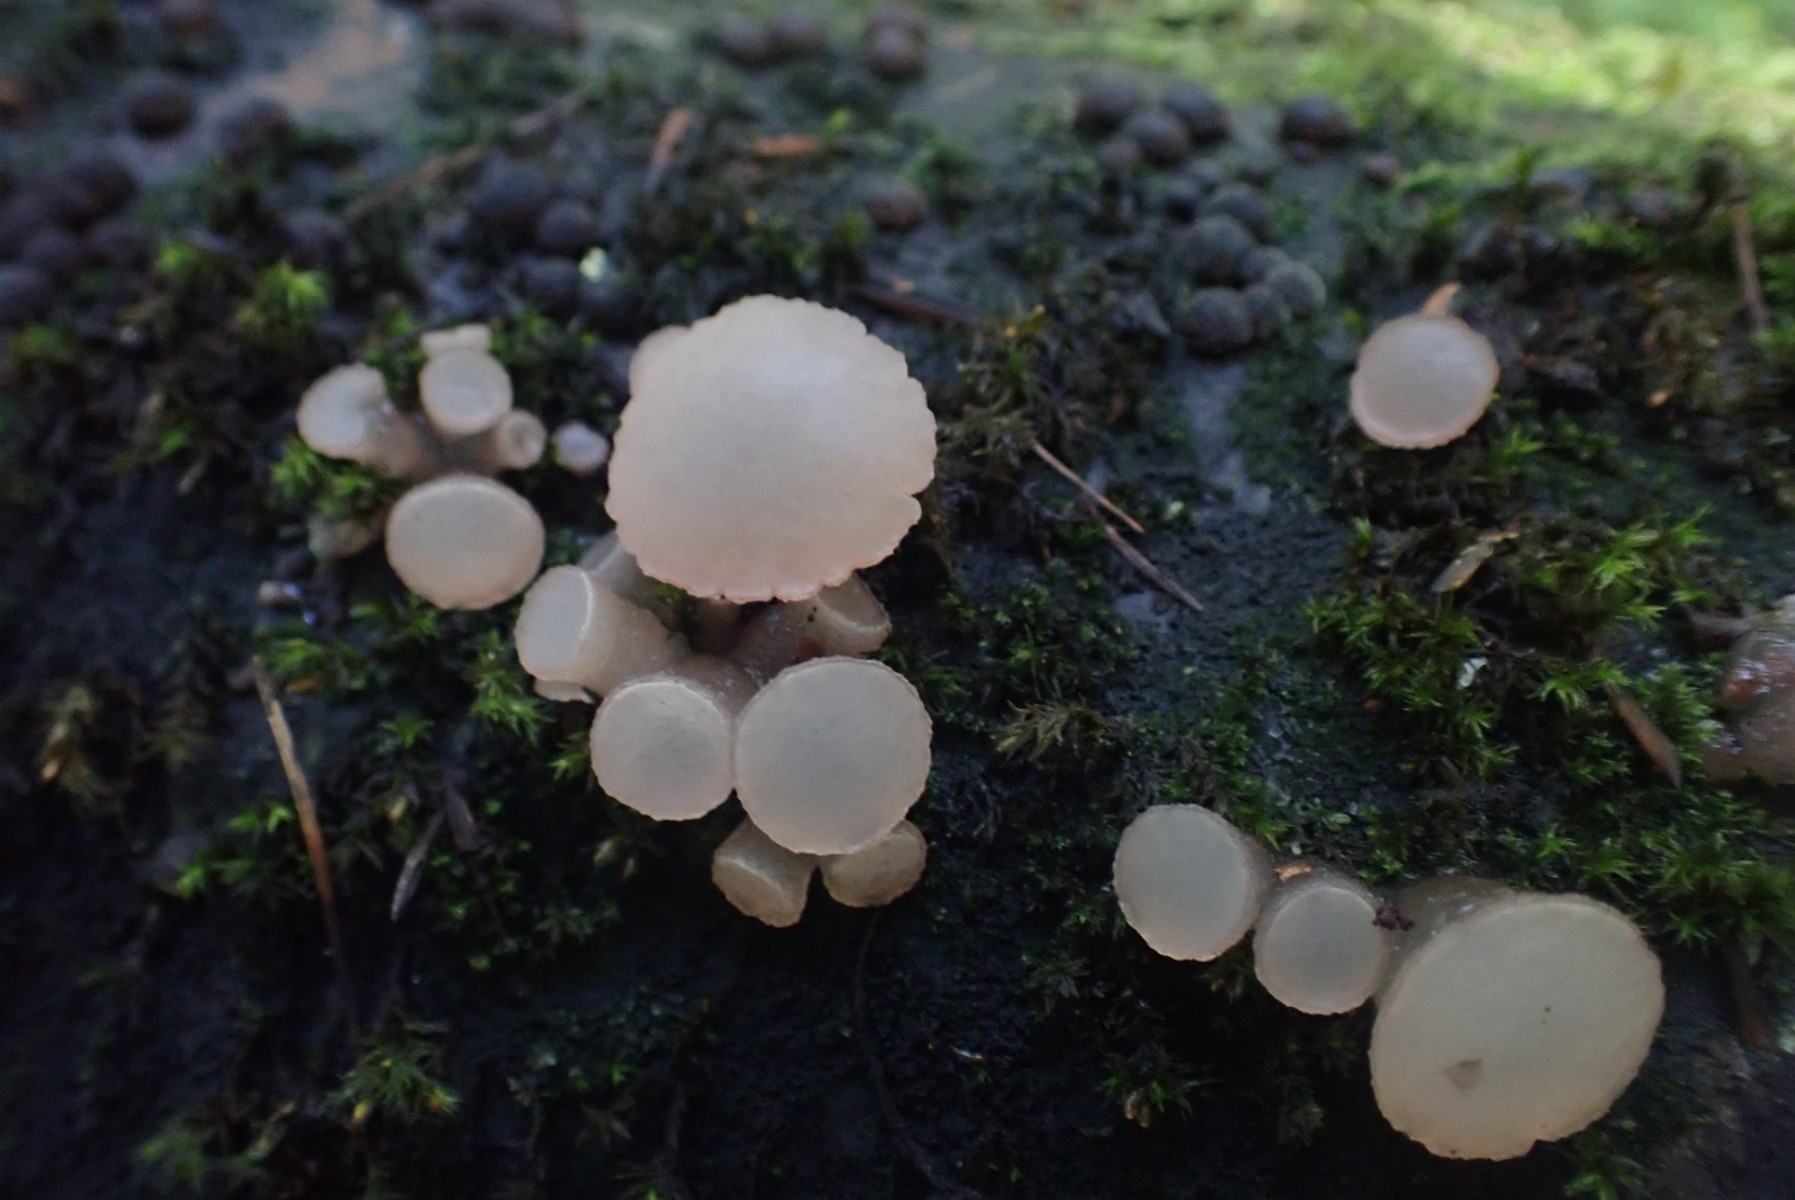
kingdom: Fungi
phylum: Ascomycota
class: Leotiomycetes
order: Helotiales
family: Gelatinodiscaceae
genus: Neobulgaria
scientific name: Neobulgaria pura
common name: bleg bævreskive
